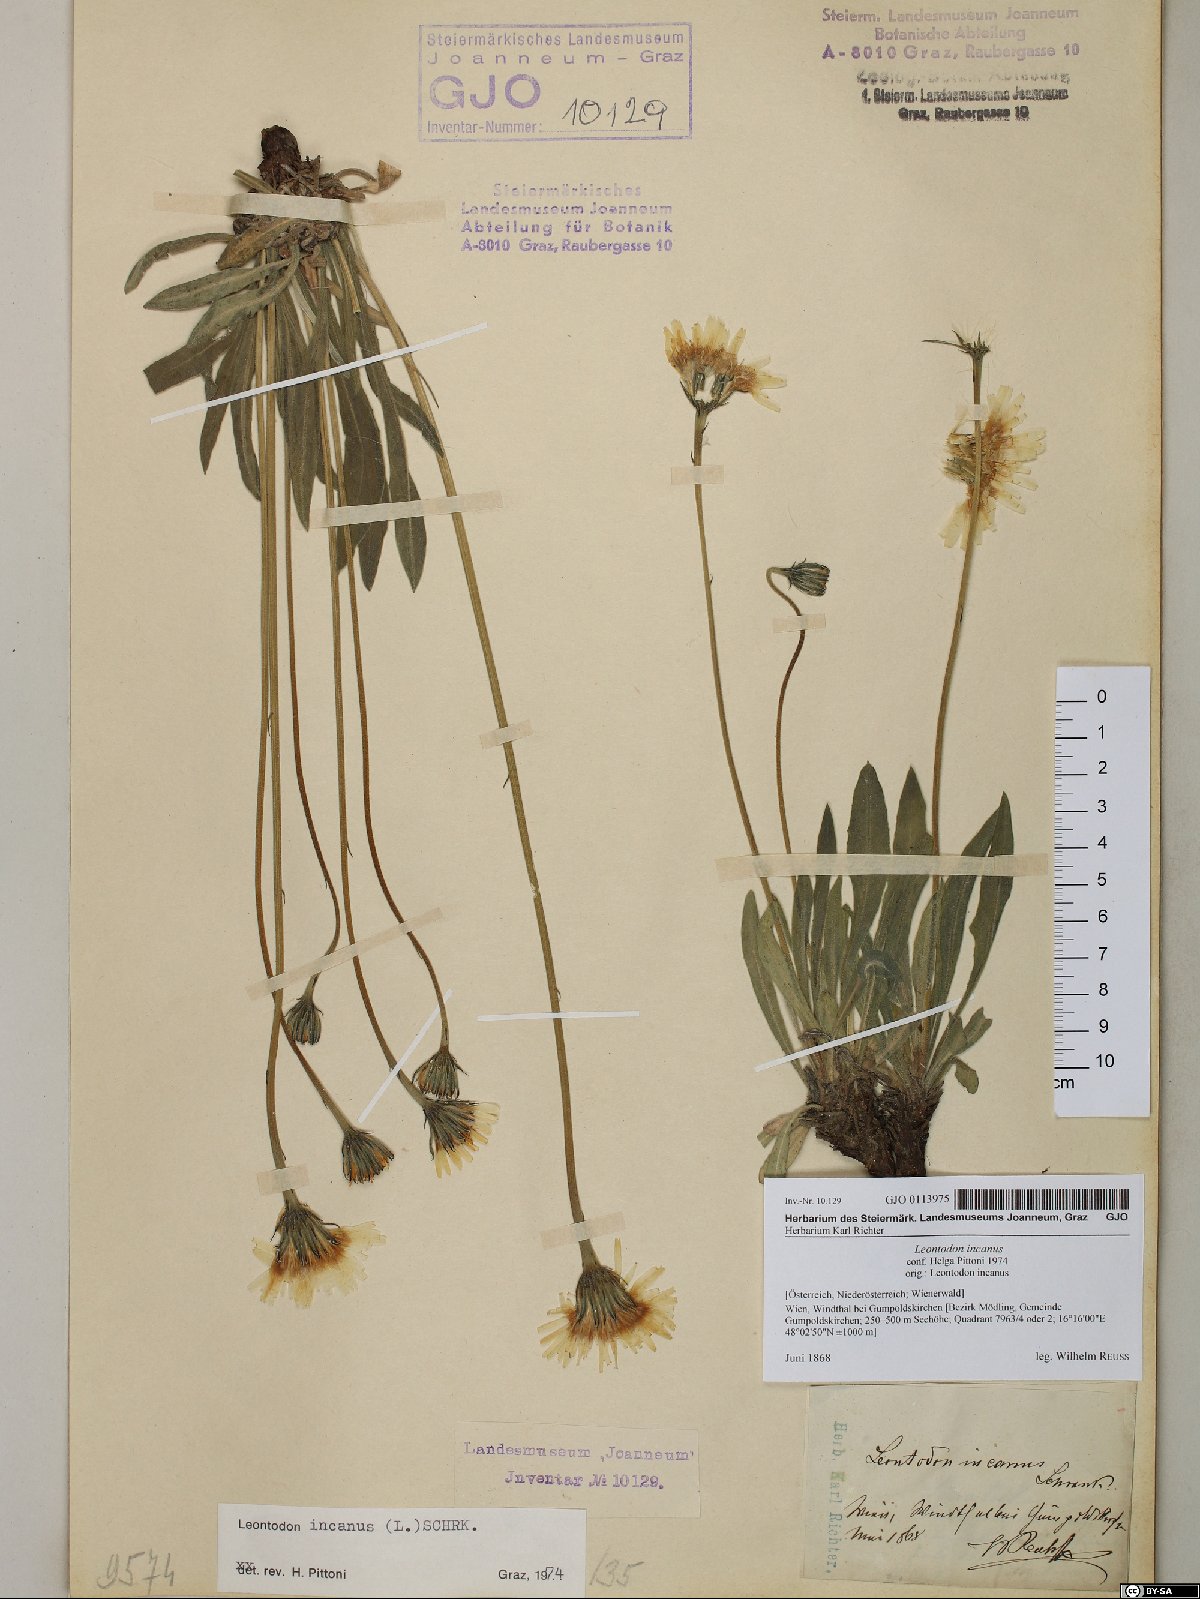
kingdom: Plantae
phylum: Tracheophyta
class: Magnoliopsida
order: Asterales
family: Asteraceae
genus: Leontodon
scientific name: Leontodon incanus
